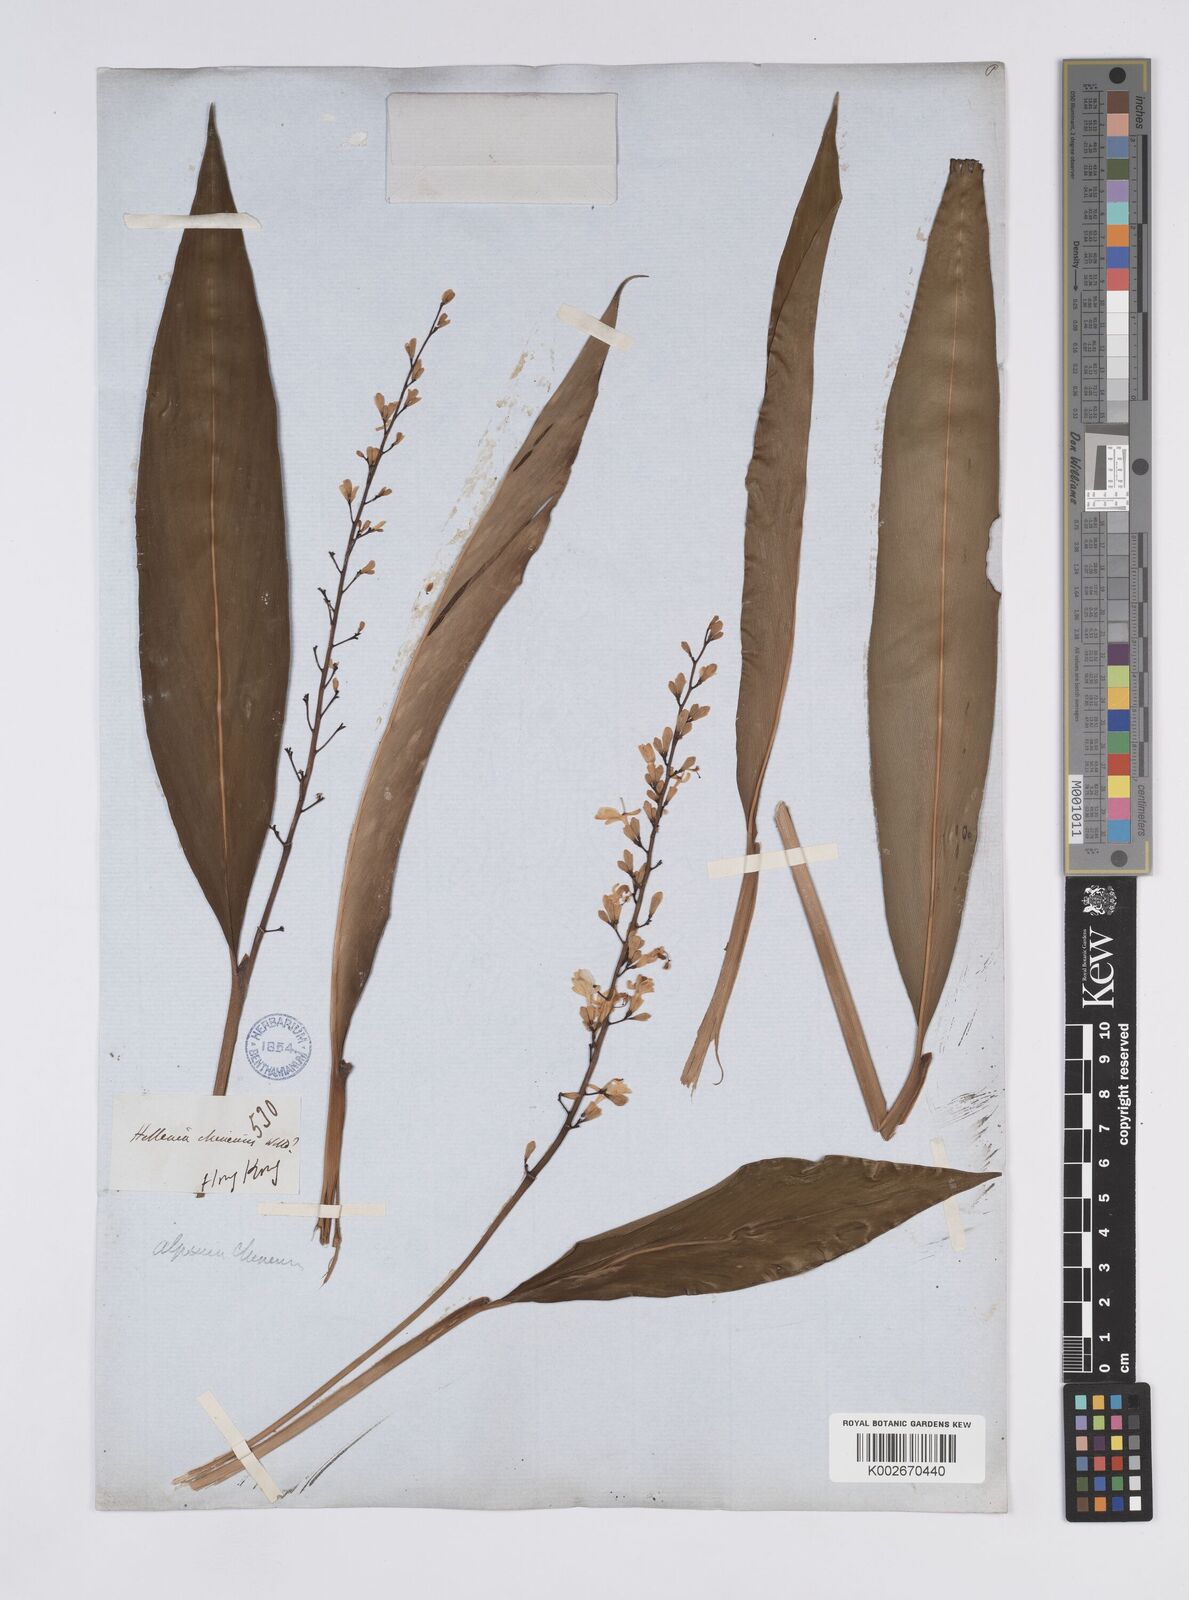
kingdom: Plantae
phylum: Tracheophyta
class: Liliopsida
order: Zingiberales
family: Zingiberaceae
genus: Alpinia
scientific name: Alpinia chinensis
